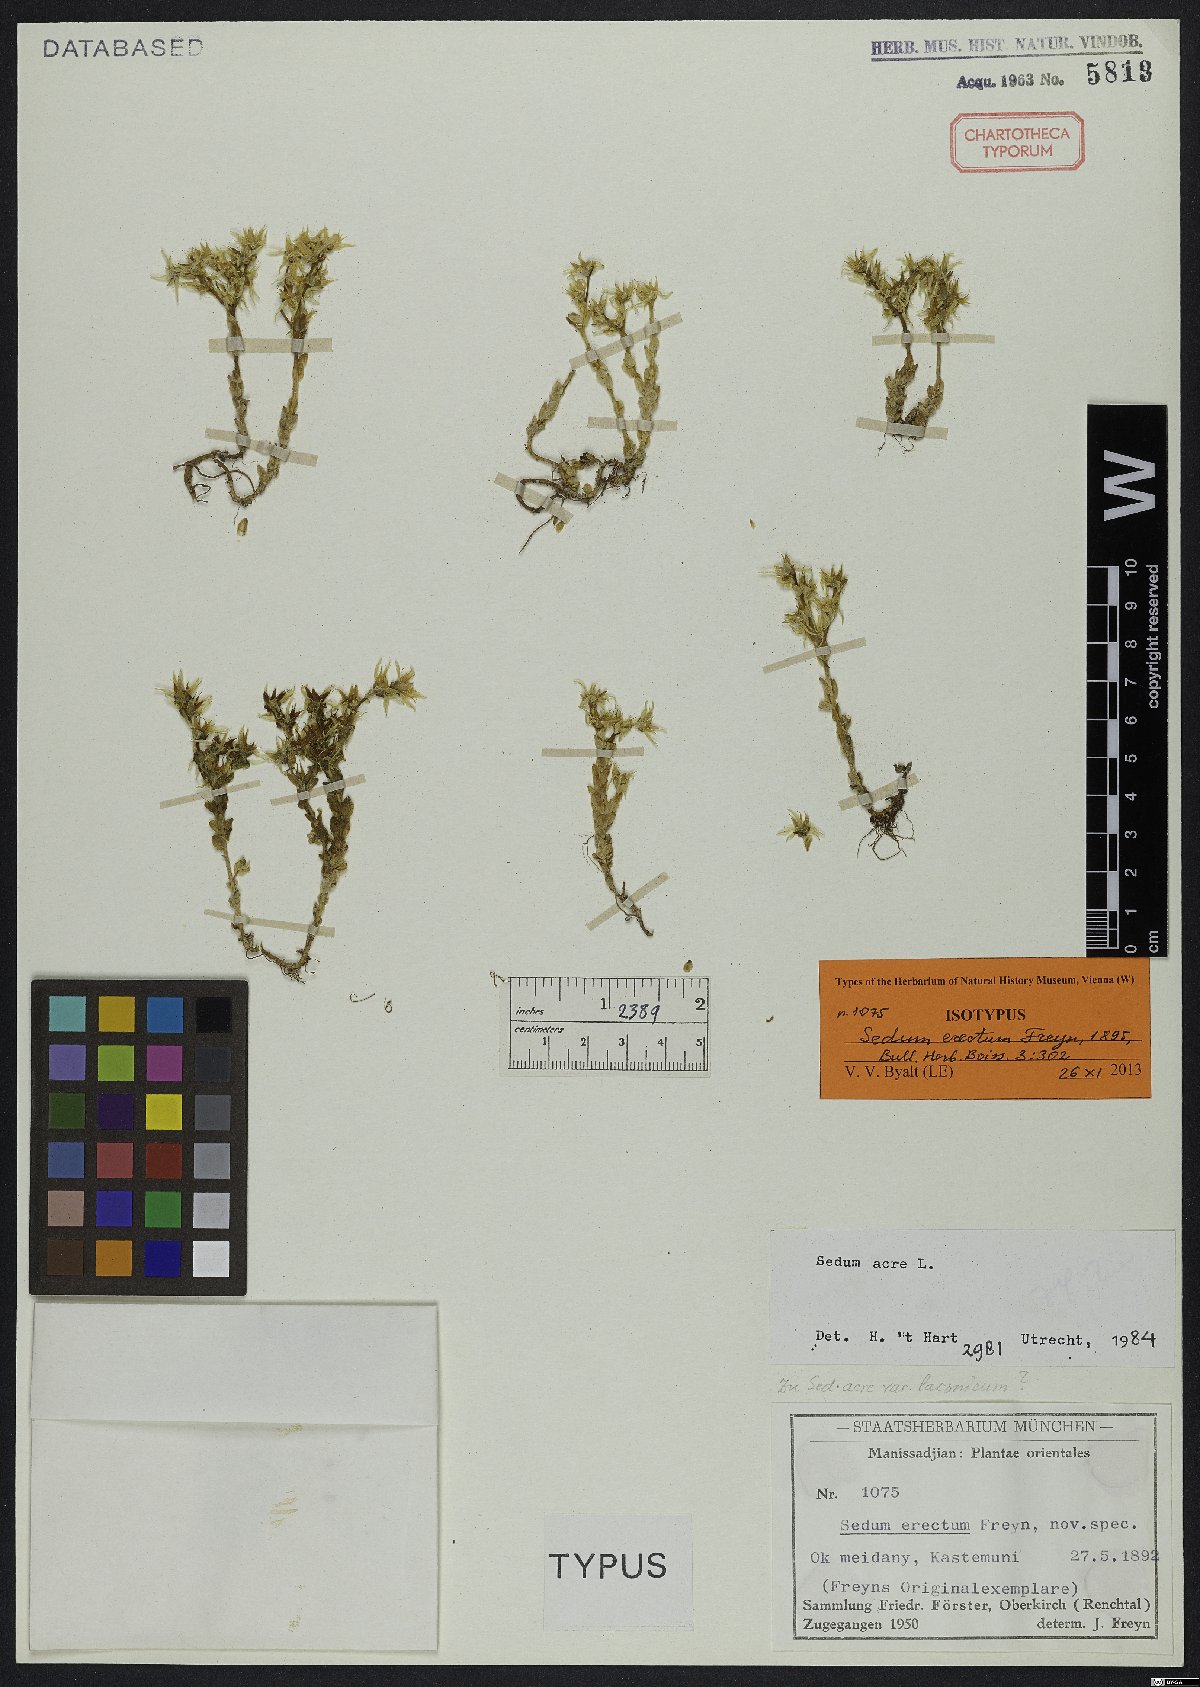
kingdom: Plantae
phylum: Tracheophyta
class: Magnoliopsida
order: Saxifragales
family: Crassulaceae
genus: Sedum
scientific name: Sedum acre
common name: Biting stonecrop
